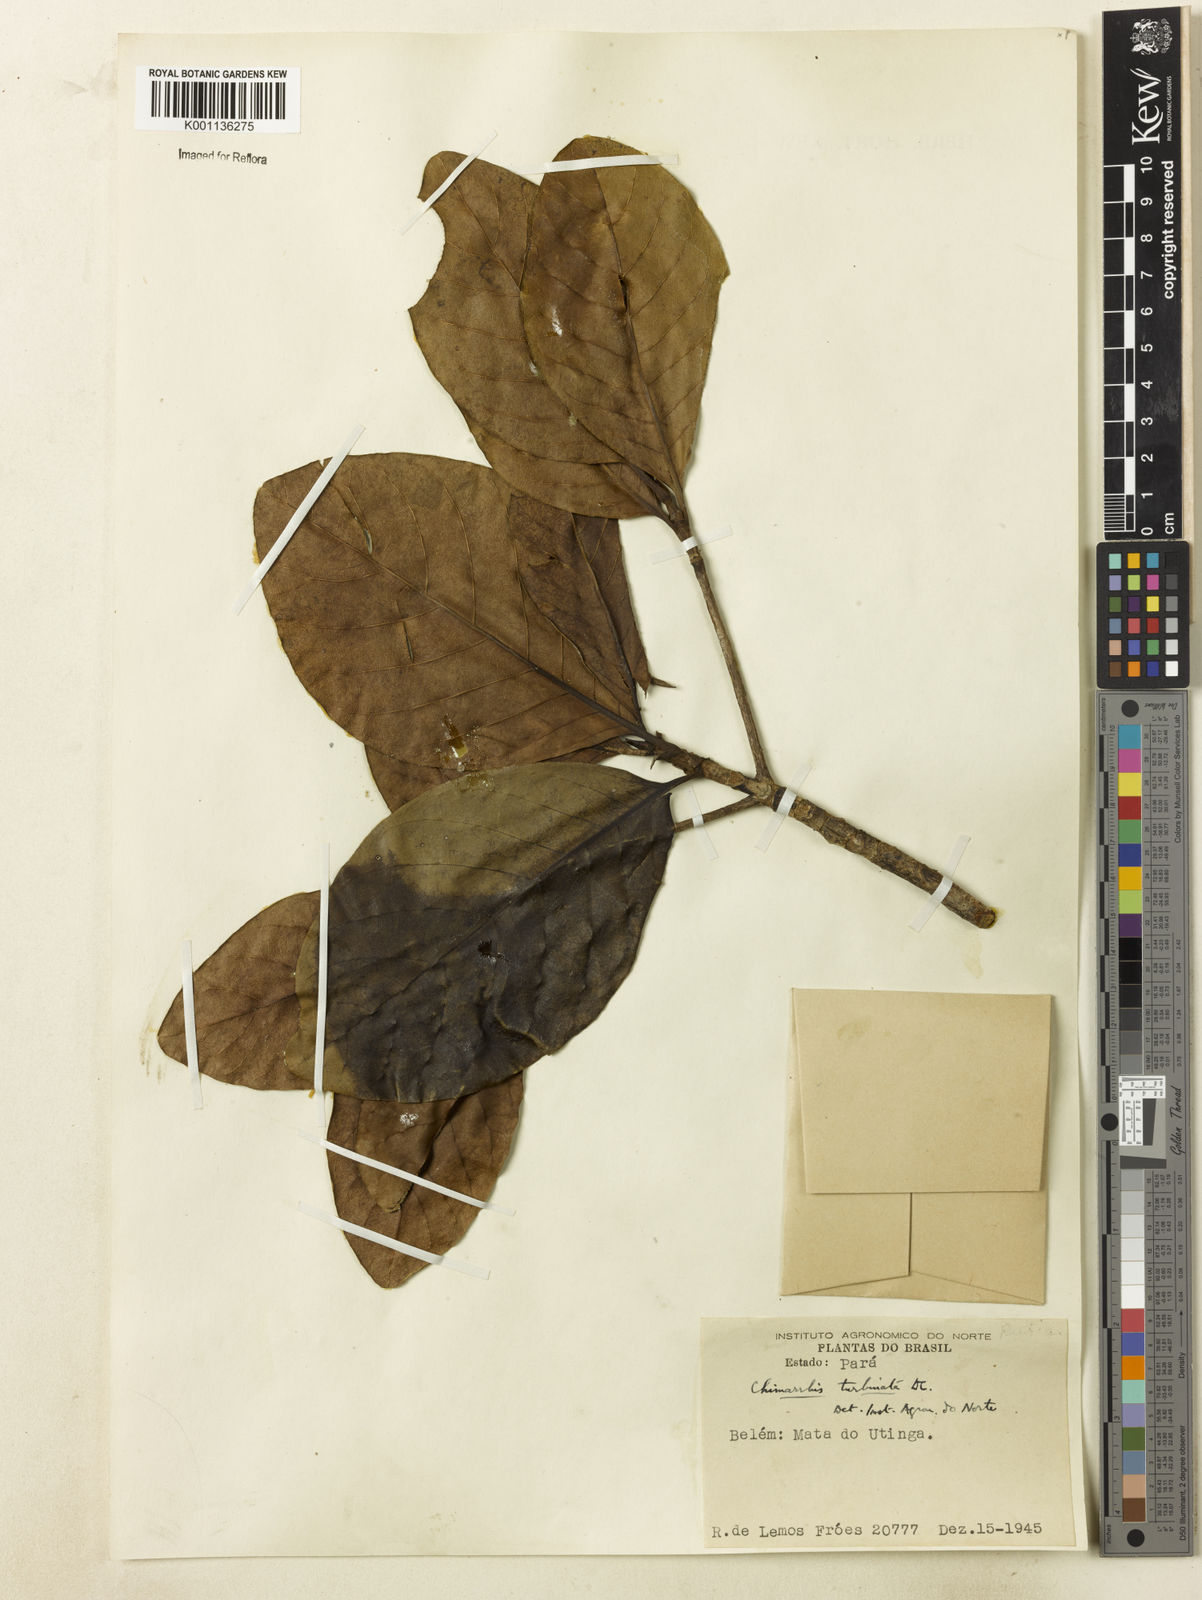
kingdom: Plantae
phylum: Tracheophyta
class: Magnoliopsida
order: Gentianales
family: Rubiaceae
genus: Chimarrhis
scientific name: Chimarrhis turbinata
